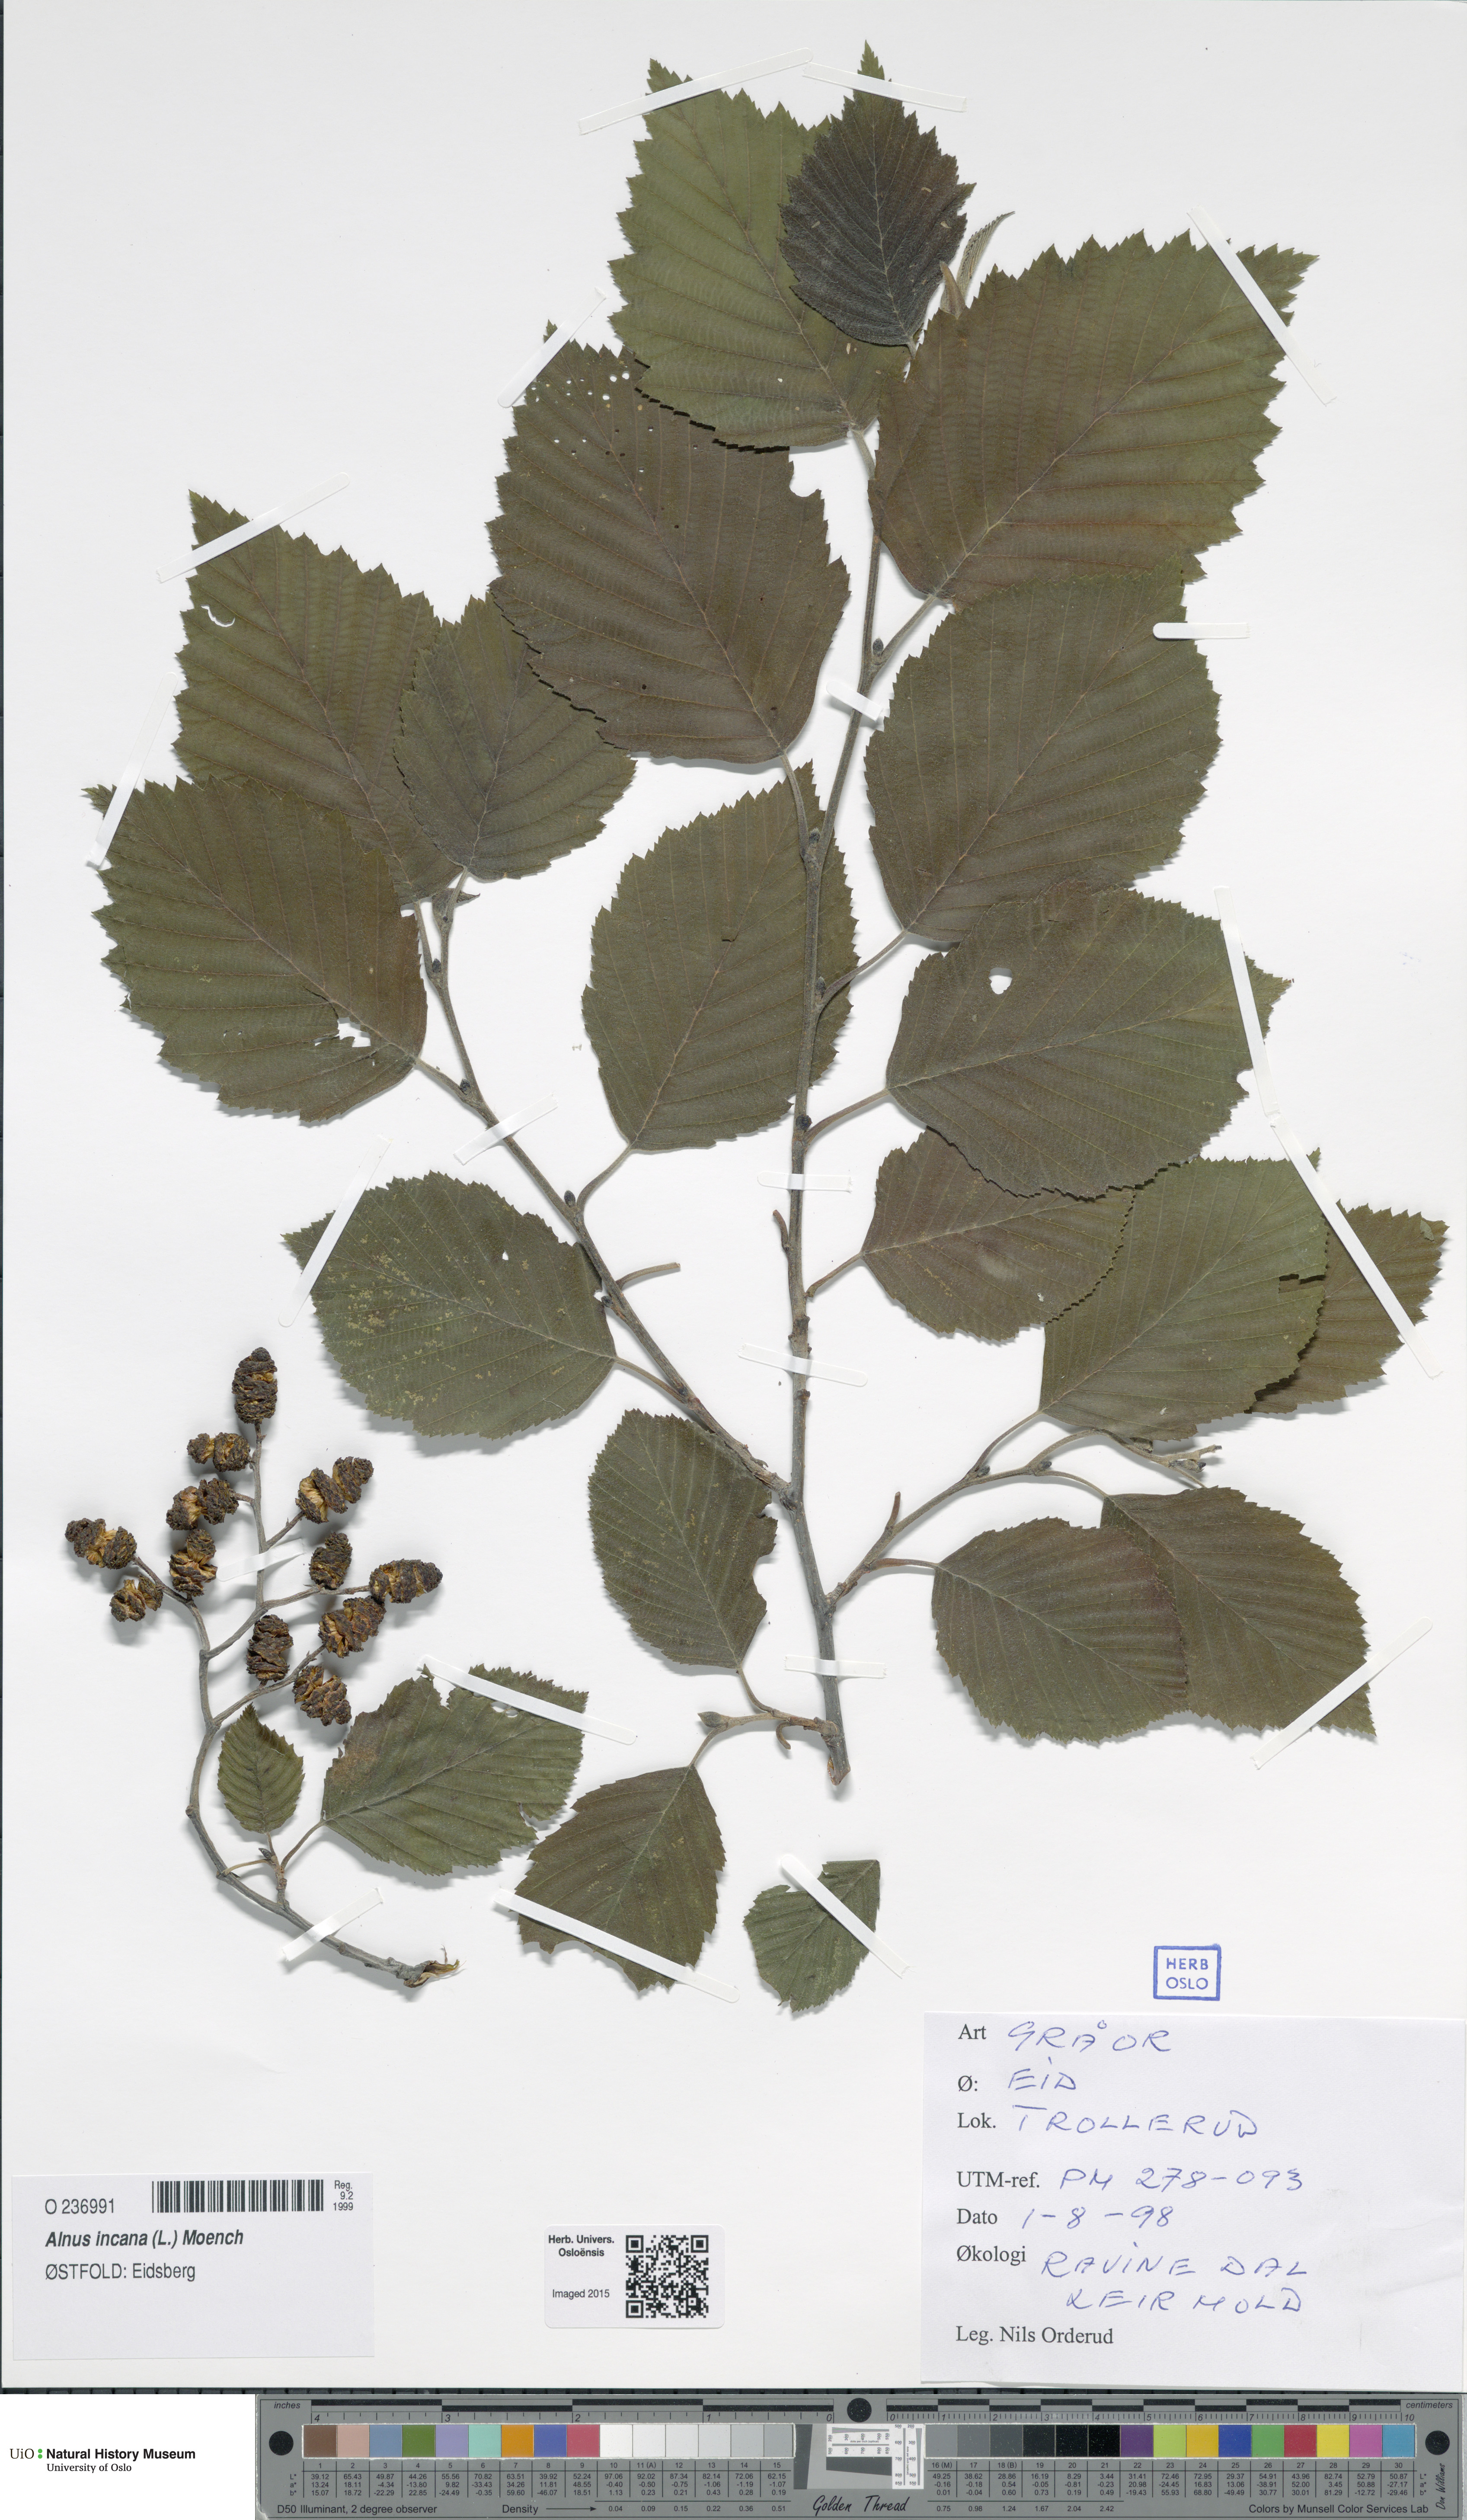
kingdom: Plantae
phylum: Tracheophyta
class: Magnoliopsida
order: Fagales
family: Betulaceae
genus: Alnus
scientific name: Alnus incana
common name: Grey alder
